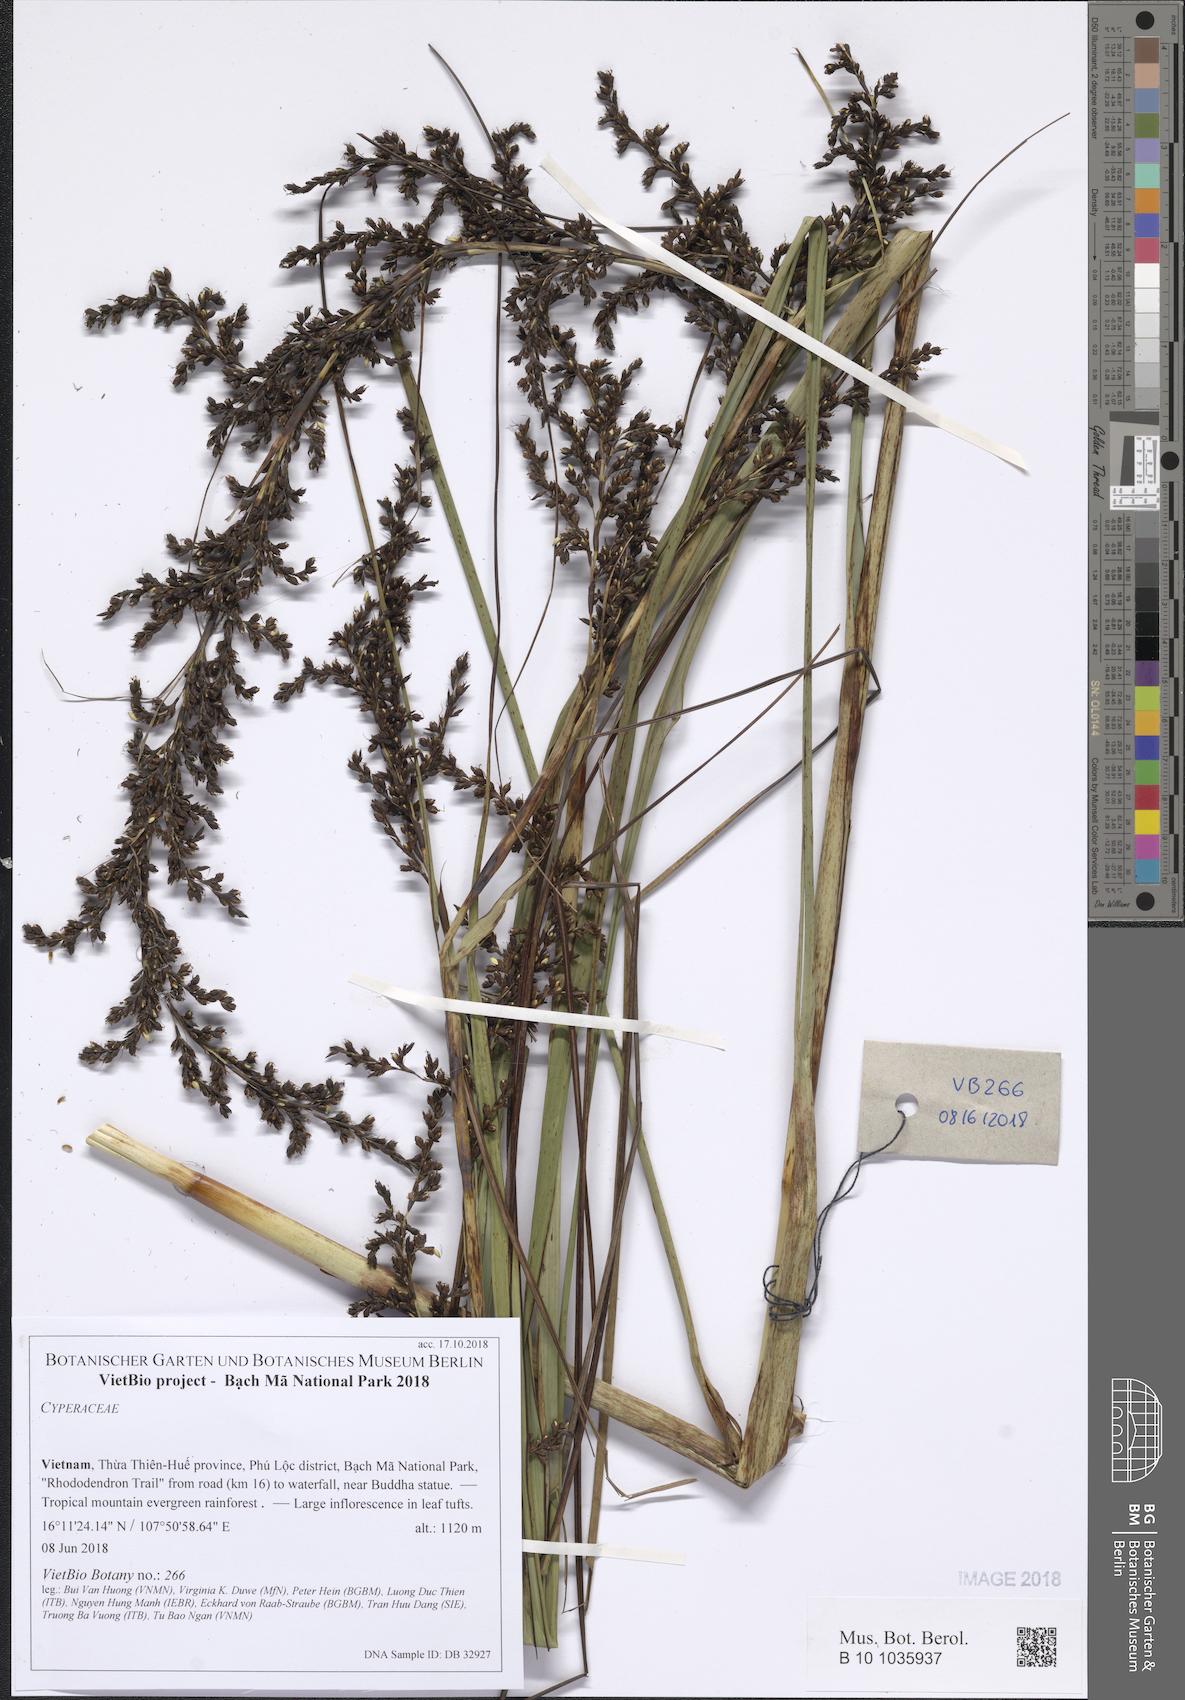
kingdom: Plantae
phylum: Tracheophyta
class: Liliopsida
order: Poales
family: Cyperaceae
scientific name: Cyperaceae
